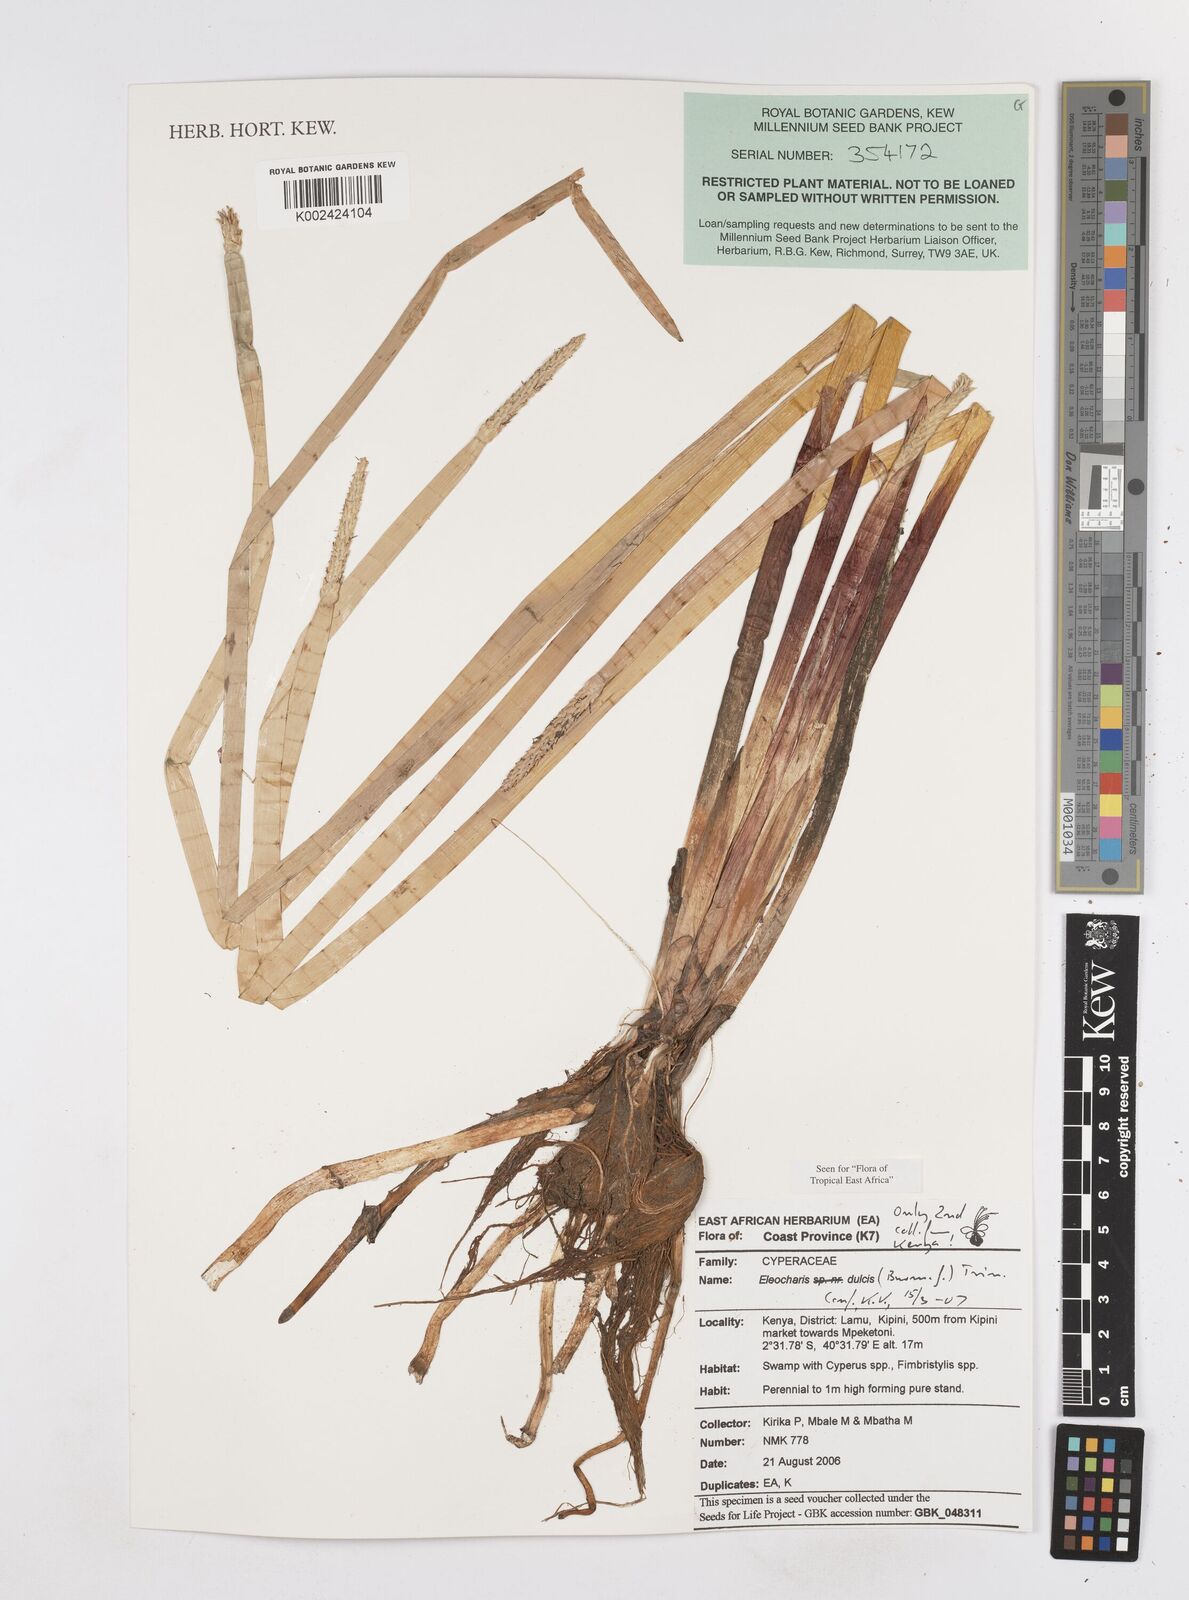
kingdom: Plantae
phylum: Tracheophyta
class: Liliopsida
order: Poales
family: Cyperaceae
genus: Eleocharis
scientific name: Eleocharis dulcis
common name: Chinese water chestnut
